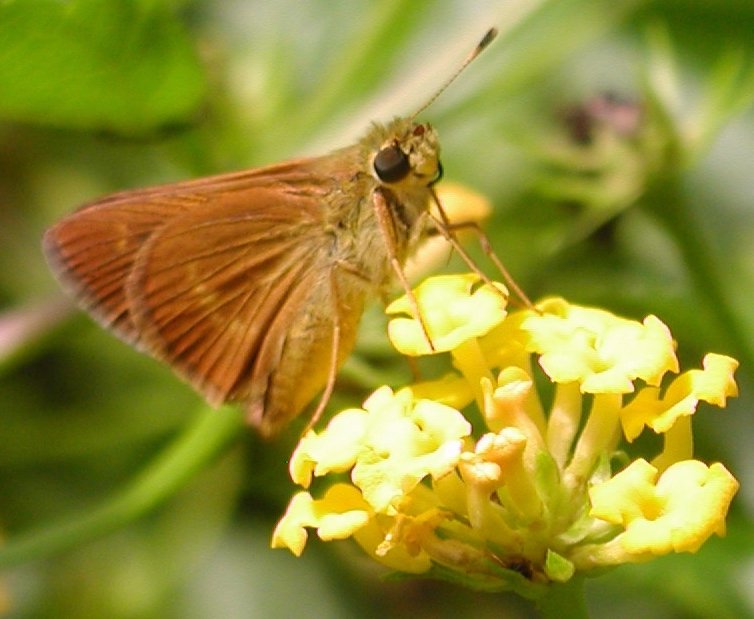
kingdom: Animalia
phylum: Arthropoda
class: Insecta
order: Lepidoptera
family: Hesperiidae
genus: Wallengrenia
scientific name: Wallengrenia otho
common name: Southern Broken-Dash
